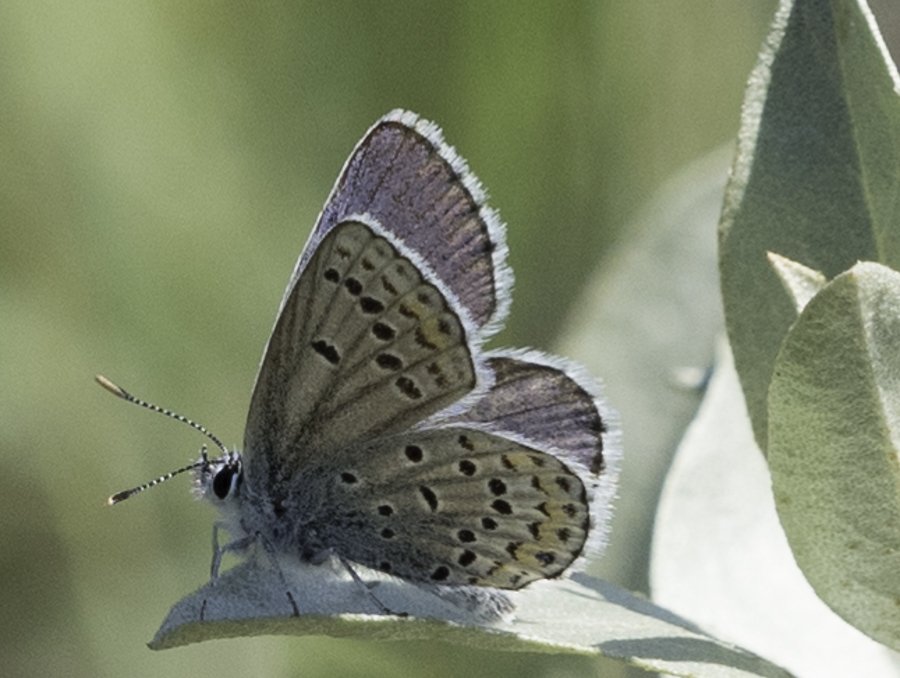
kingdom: Animalia
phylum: Arthropoda
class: Insecta
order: Lepidoptera
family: Lycaenidae
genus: Lycaeides
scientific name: Lycaeides melissa
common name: Melissa Blue
